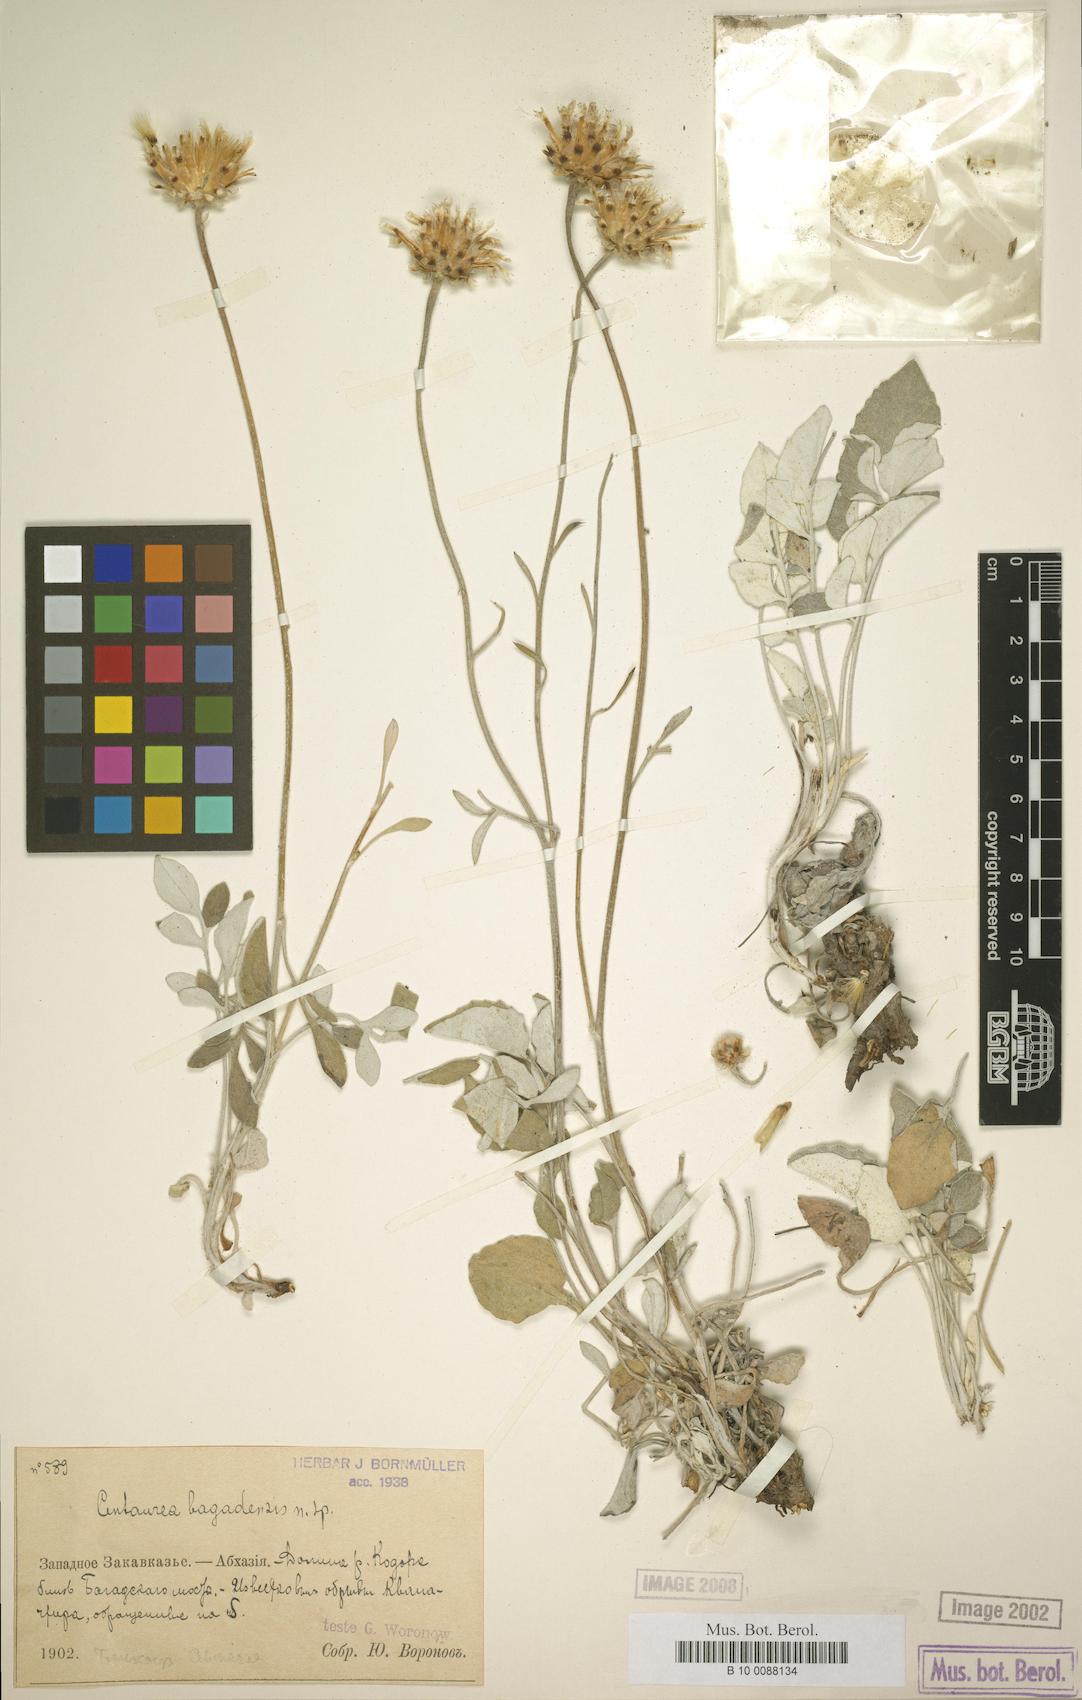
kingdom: Plantae
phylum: Tracheophyta
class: Magnoliopsida
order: Asterales
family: Asteraceae
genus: Psephellus
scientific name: Psephellus bagadensis
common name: Bagadian centaury
